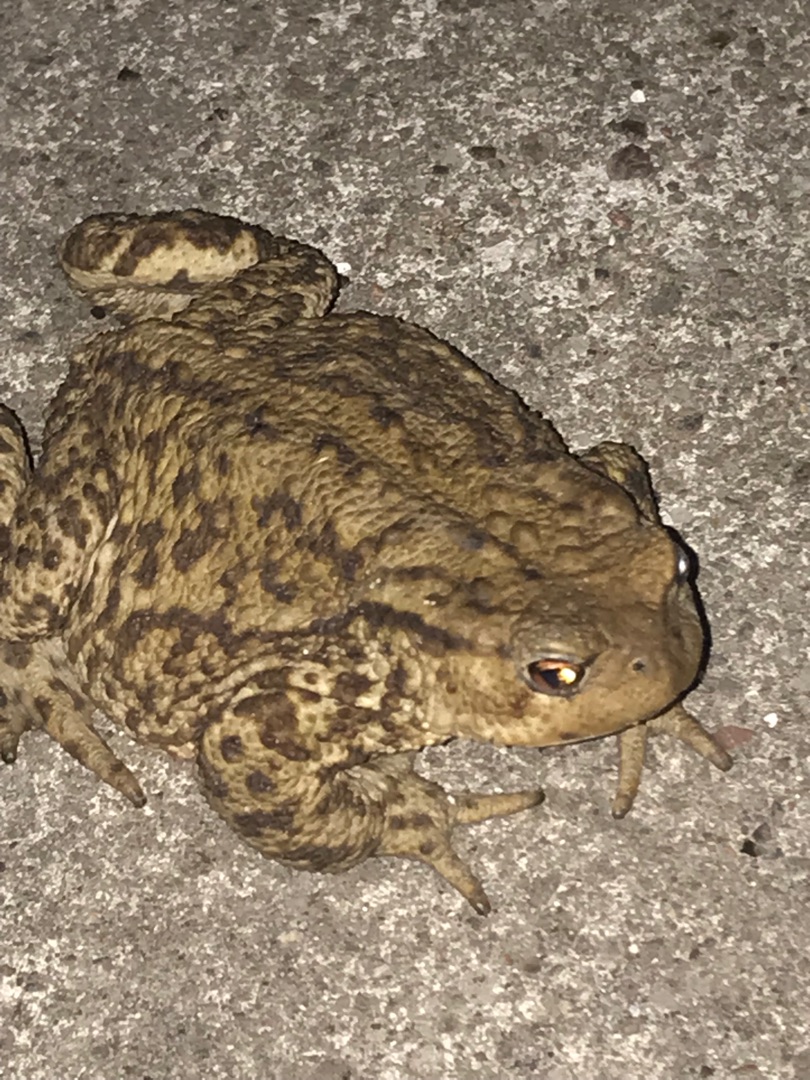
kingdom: Animalia
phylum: Chordata
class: Amphibia
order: Anura
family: Bufonidae
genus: Bufo
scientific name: Bufo bufo
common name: Skrubtudse
